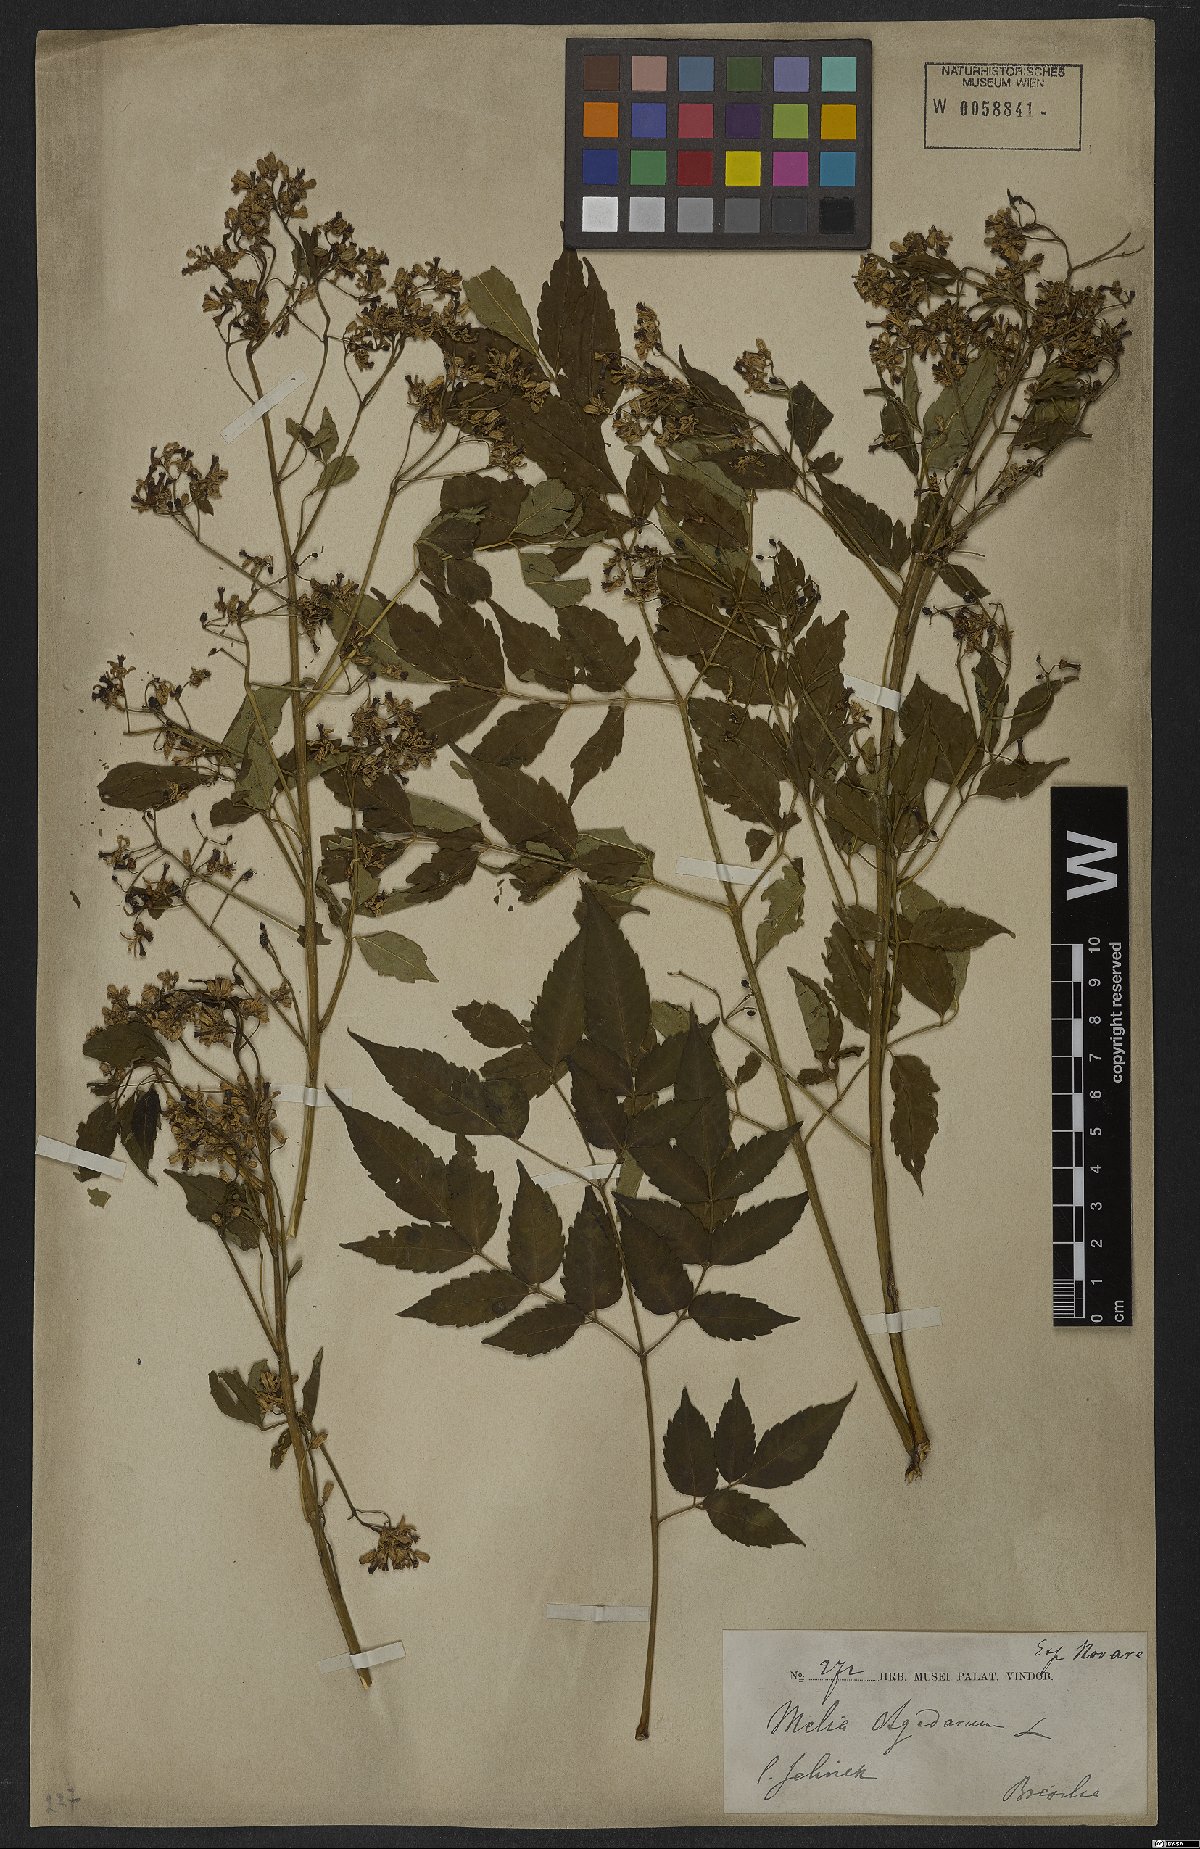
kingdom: Plantae
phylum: Tracheophyta
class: Magnoliopsida
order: Sapindales
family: Meliaceae
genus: Melia
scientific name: Melia azedarach
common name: Chinaberrytree
